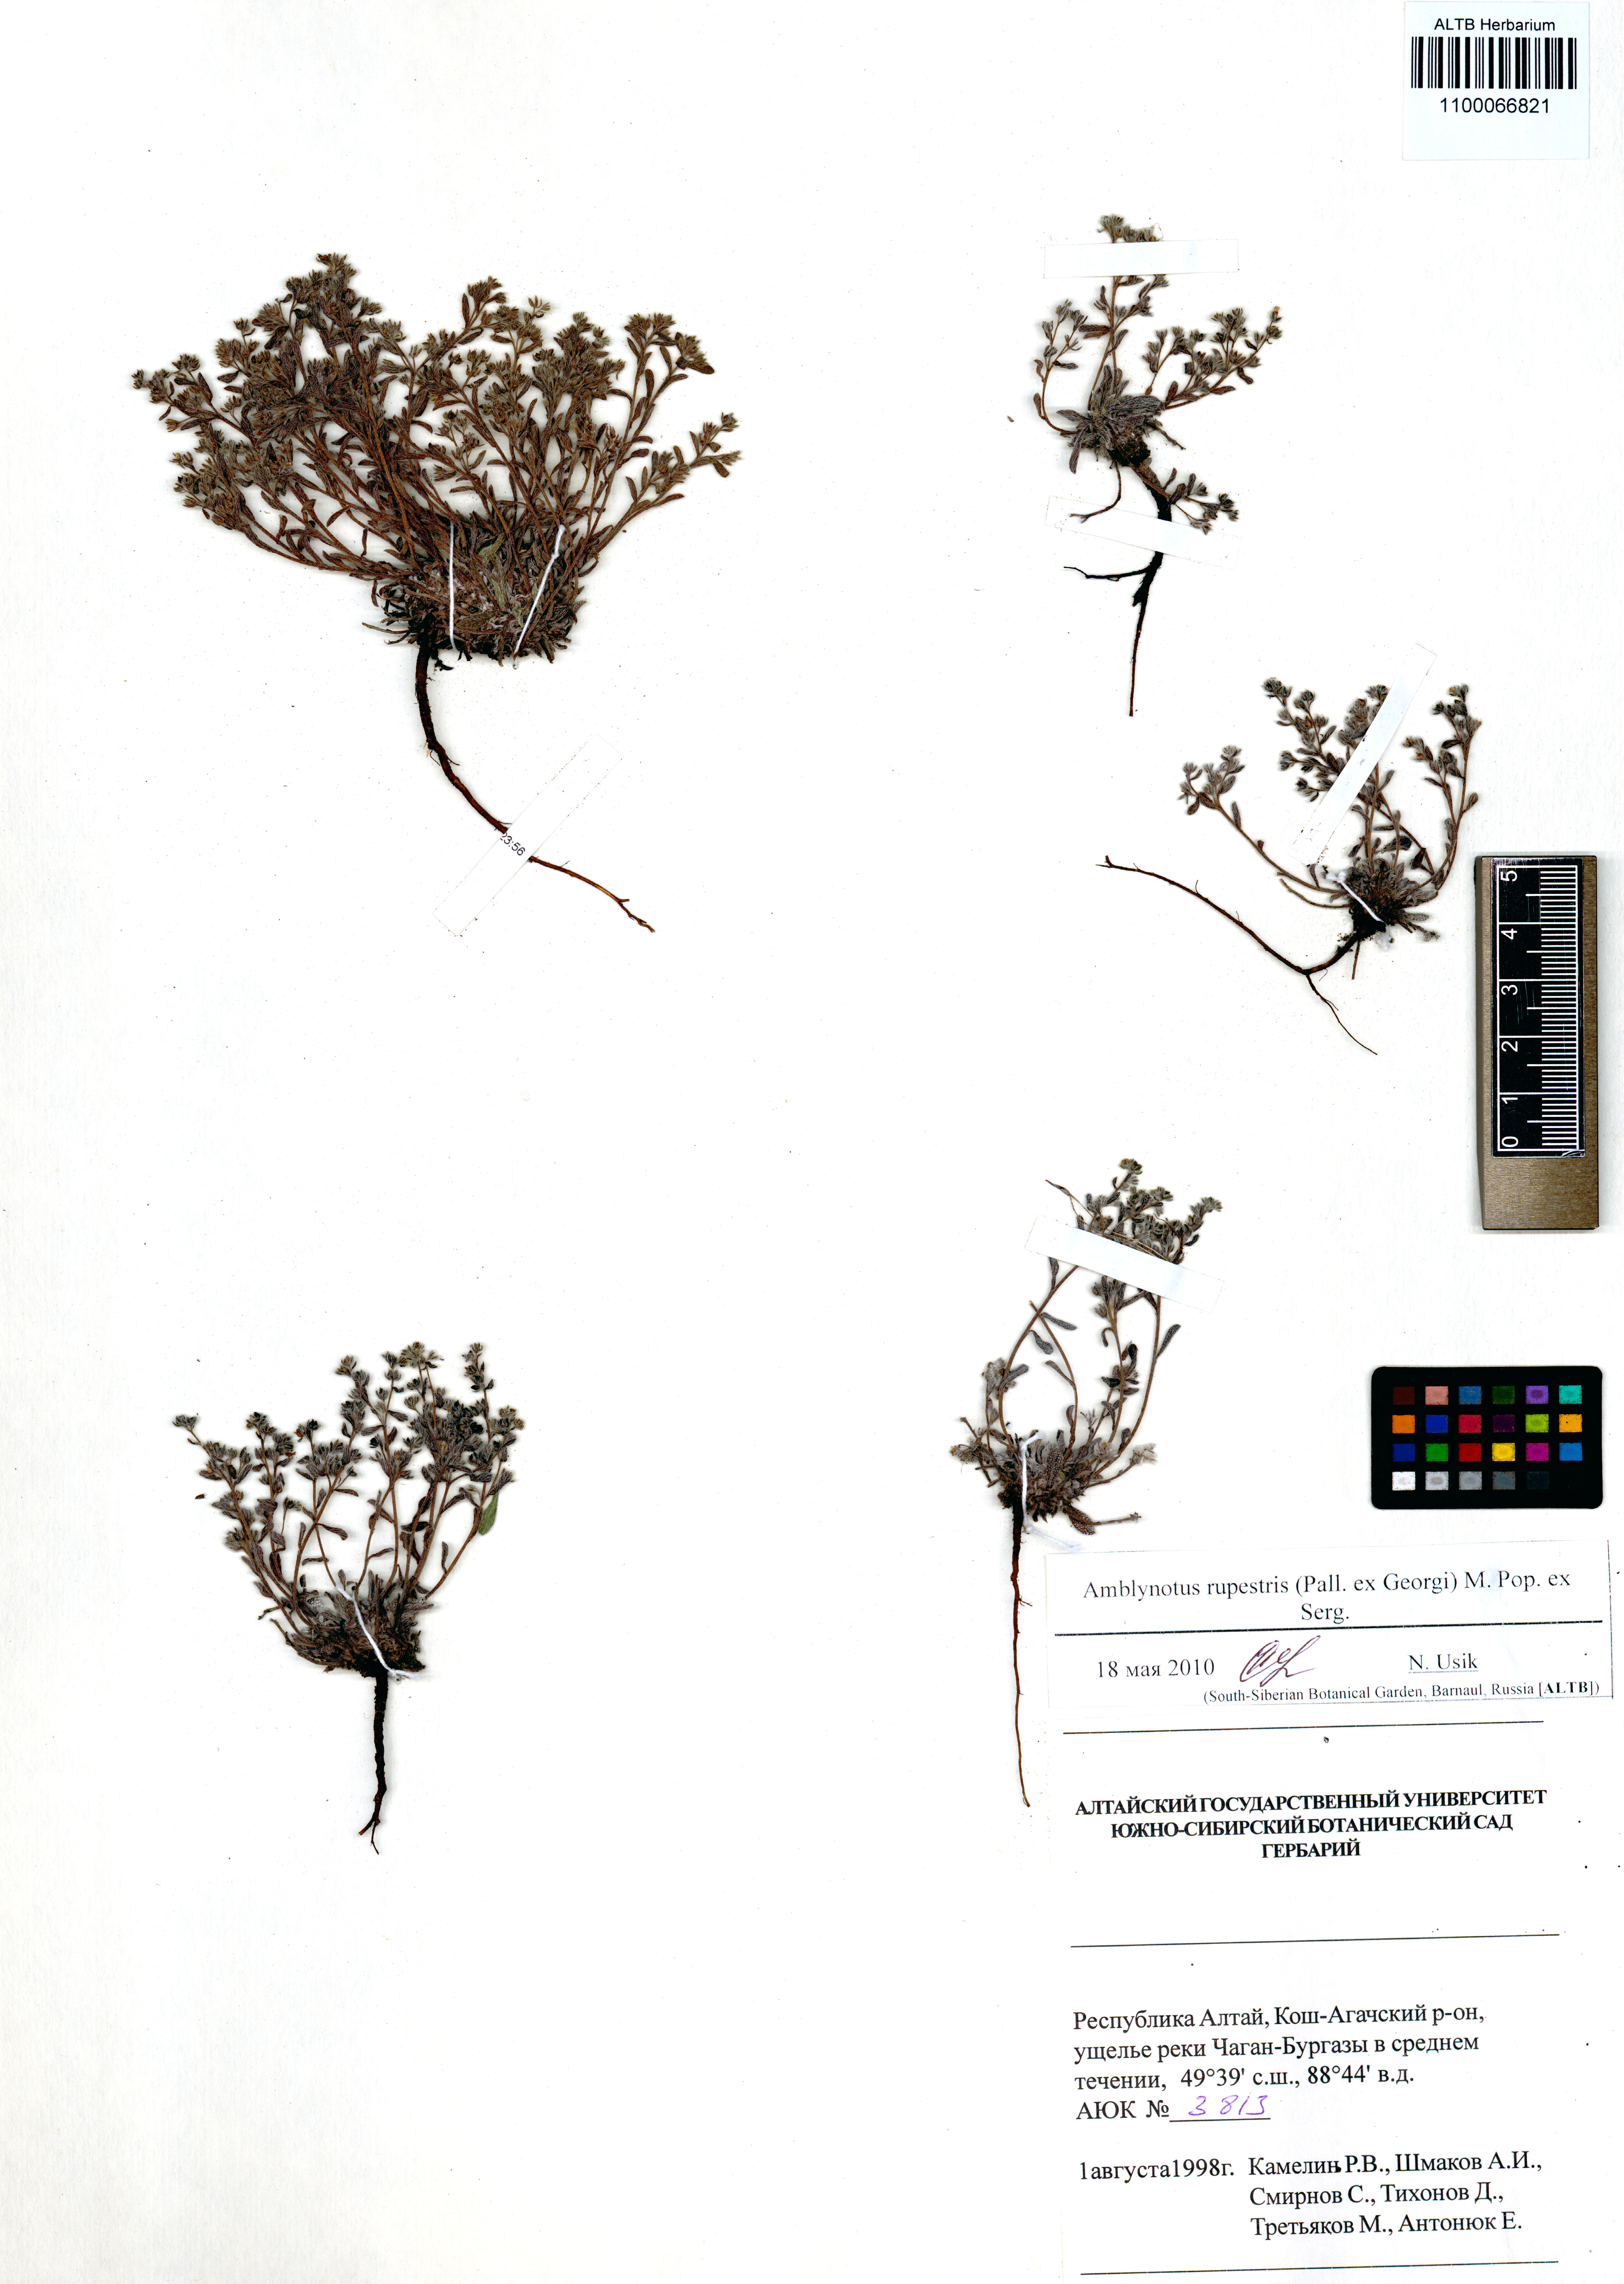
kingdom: Plantae
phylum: Tracheophyta
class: Magnoliopsida
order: Boraginales
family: Boraginaceae
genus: Eritrichium
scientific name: Eritrichium rupestre
